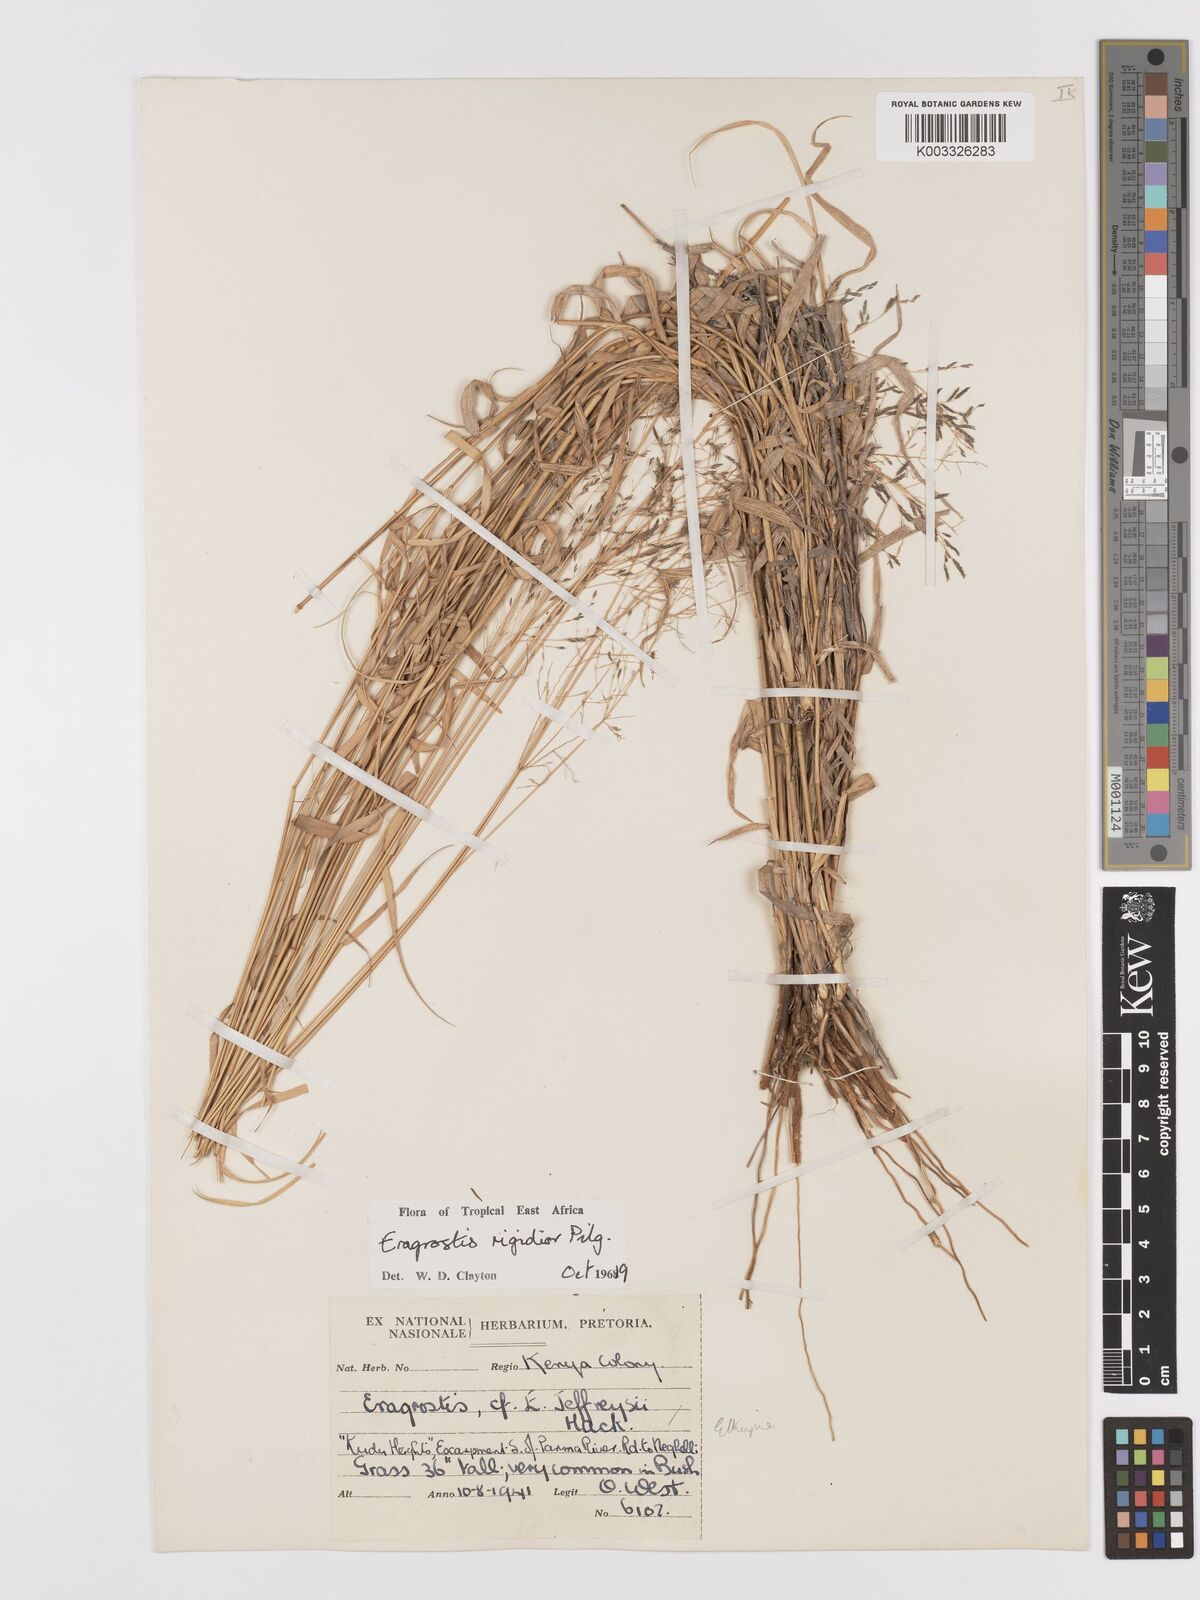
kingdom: Plantae
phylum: Tracheophyta
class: Liliopsida
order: Poales
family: Poaceae
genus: Eragrostis
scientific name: Eragrostis cylindriflora
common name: Cylinderflower lovegrass
